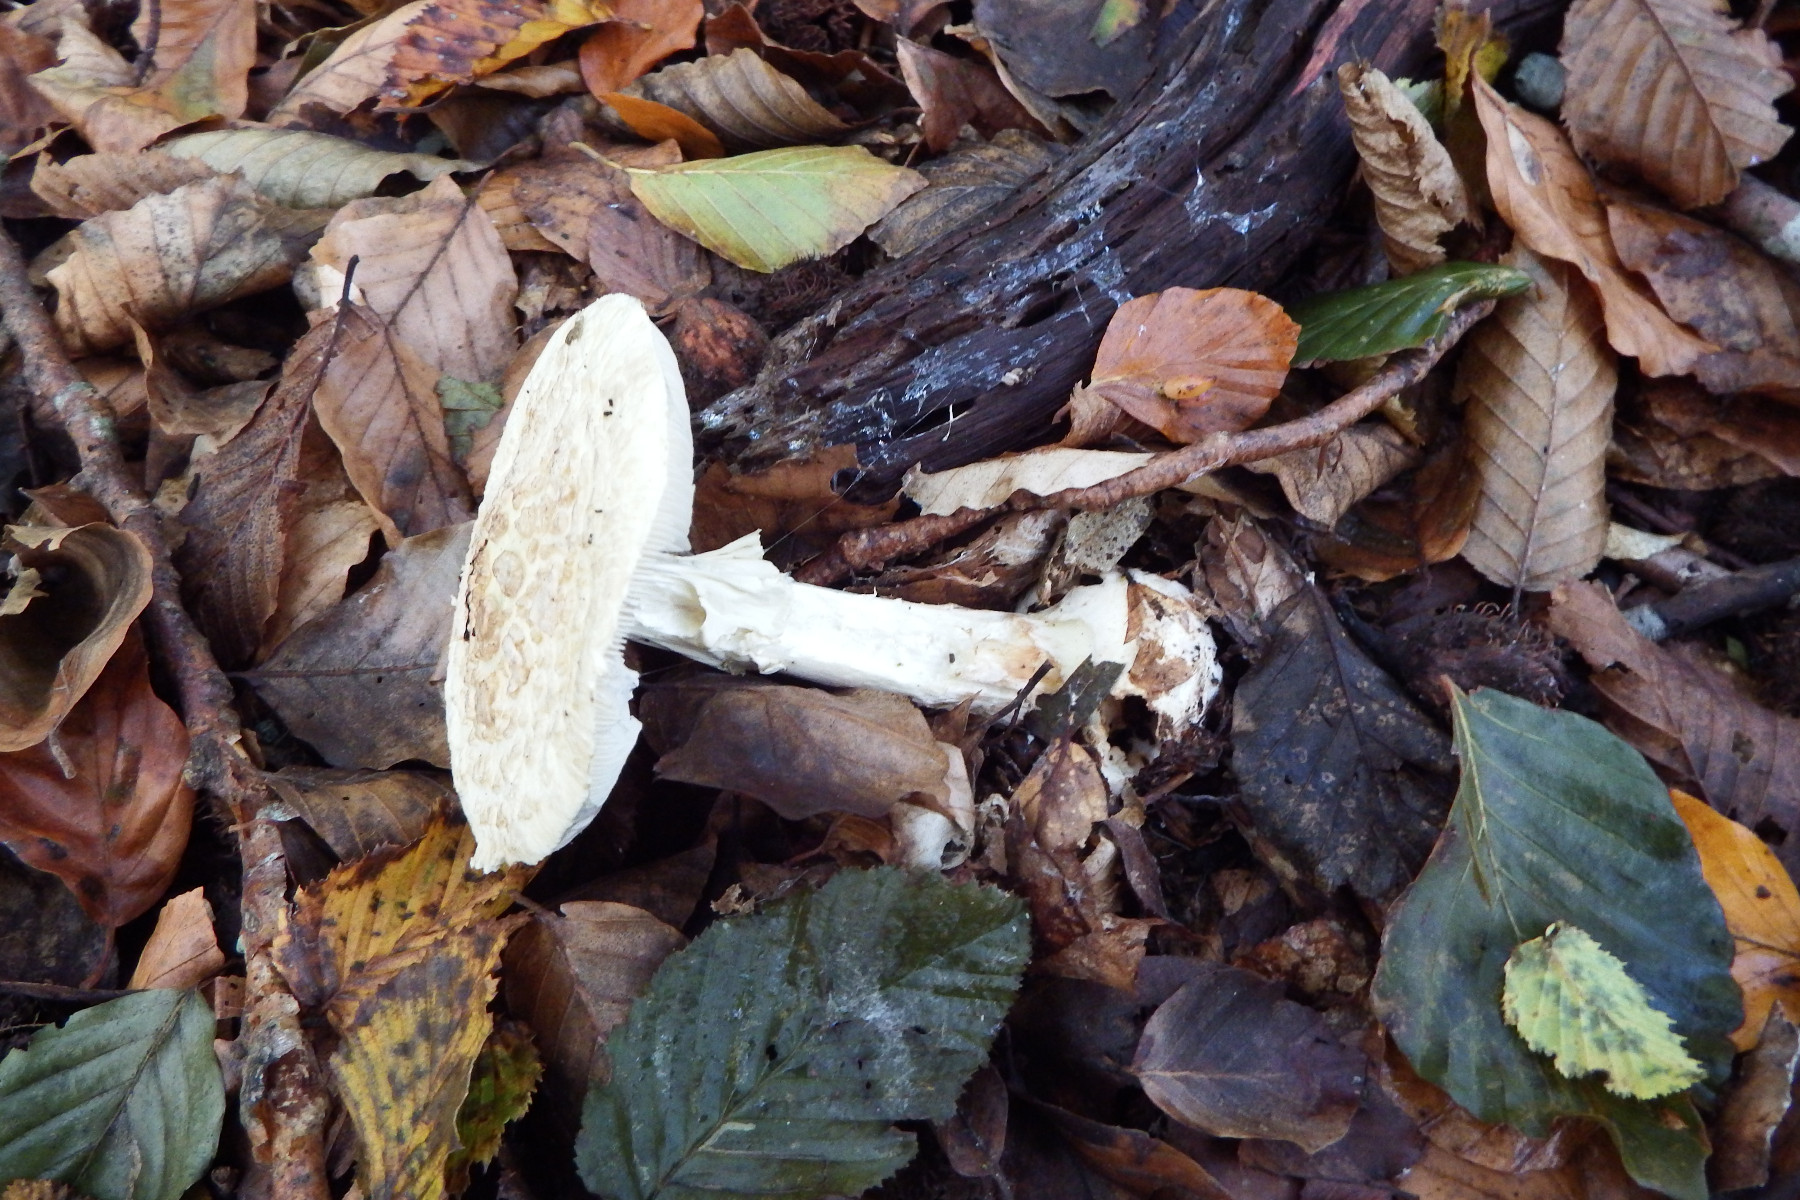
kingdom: Fungi
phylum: Basidiomycota
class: Agaricomycetes
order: Agaricales
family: Amanitaceae
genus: Amanita
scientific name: Amanita citrina
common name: kugleknoldet fluesvamp
